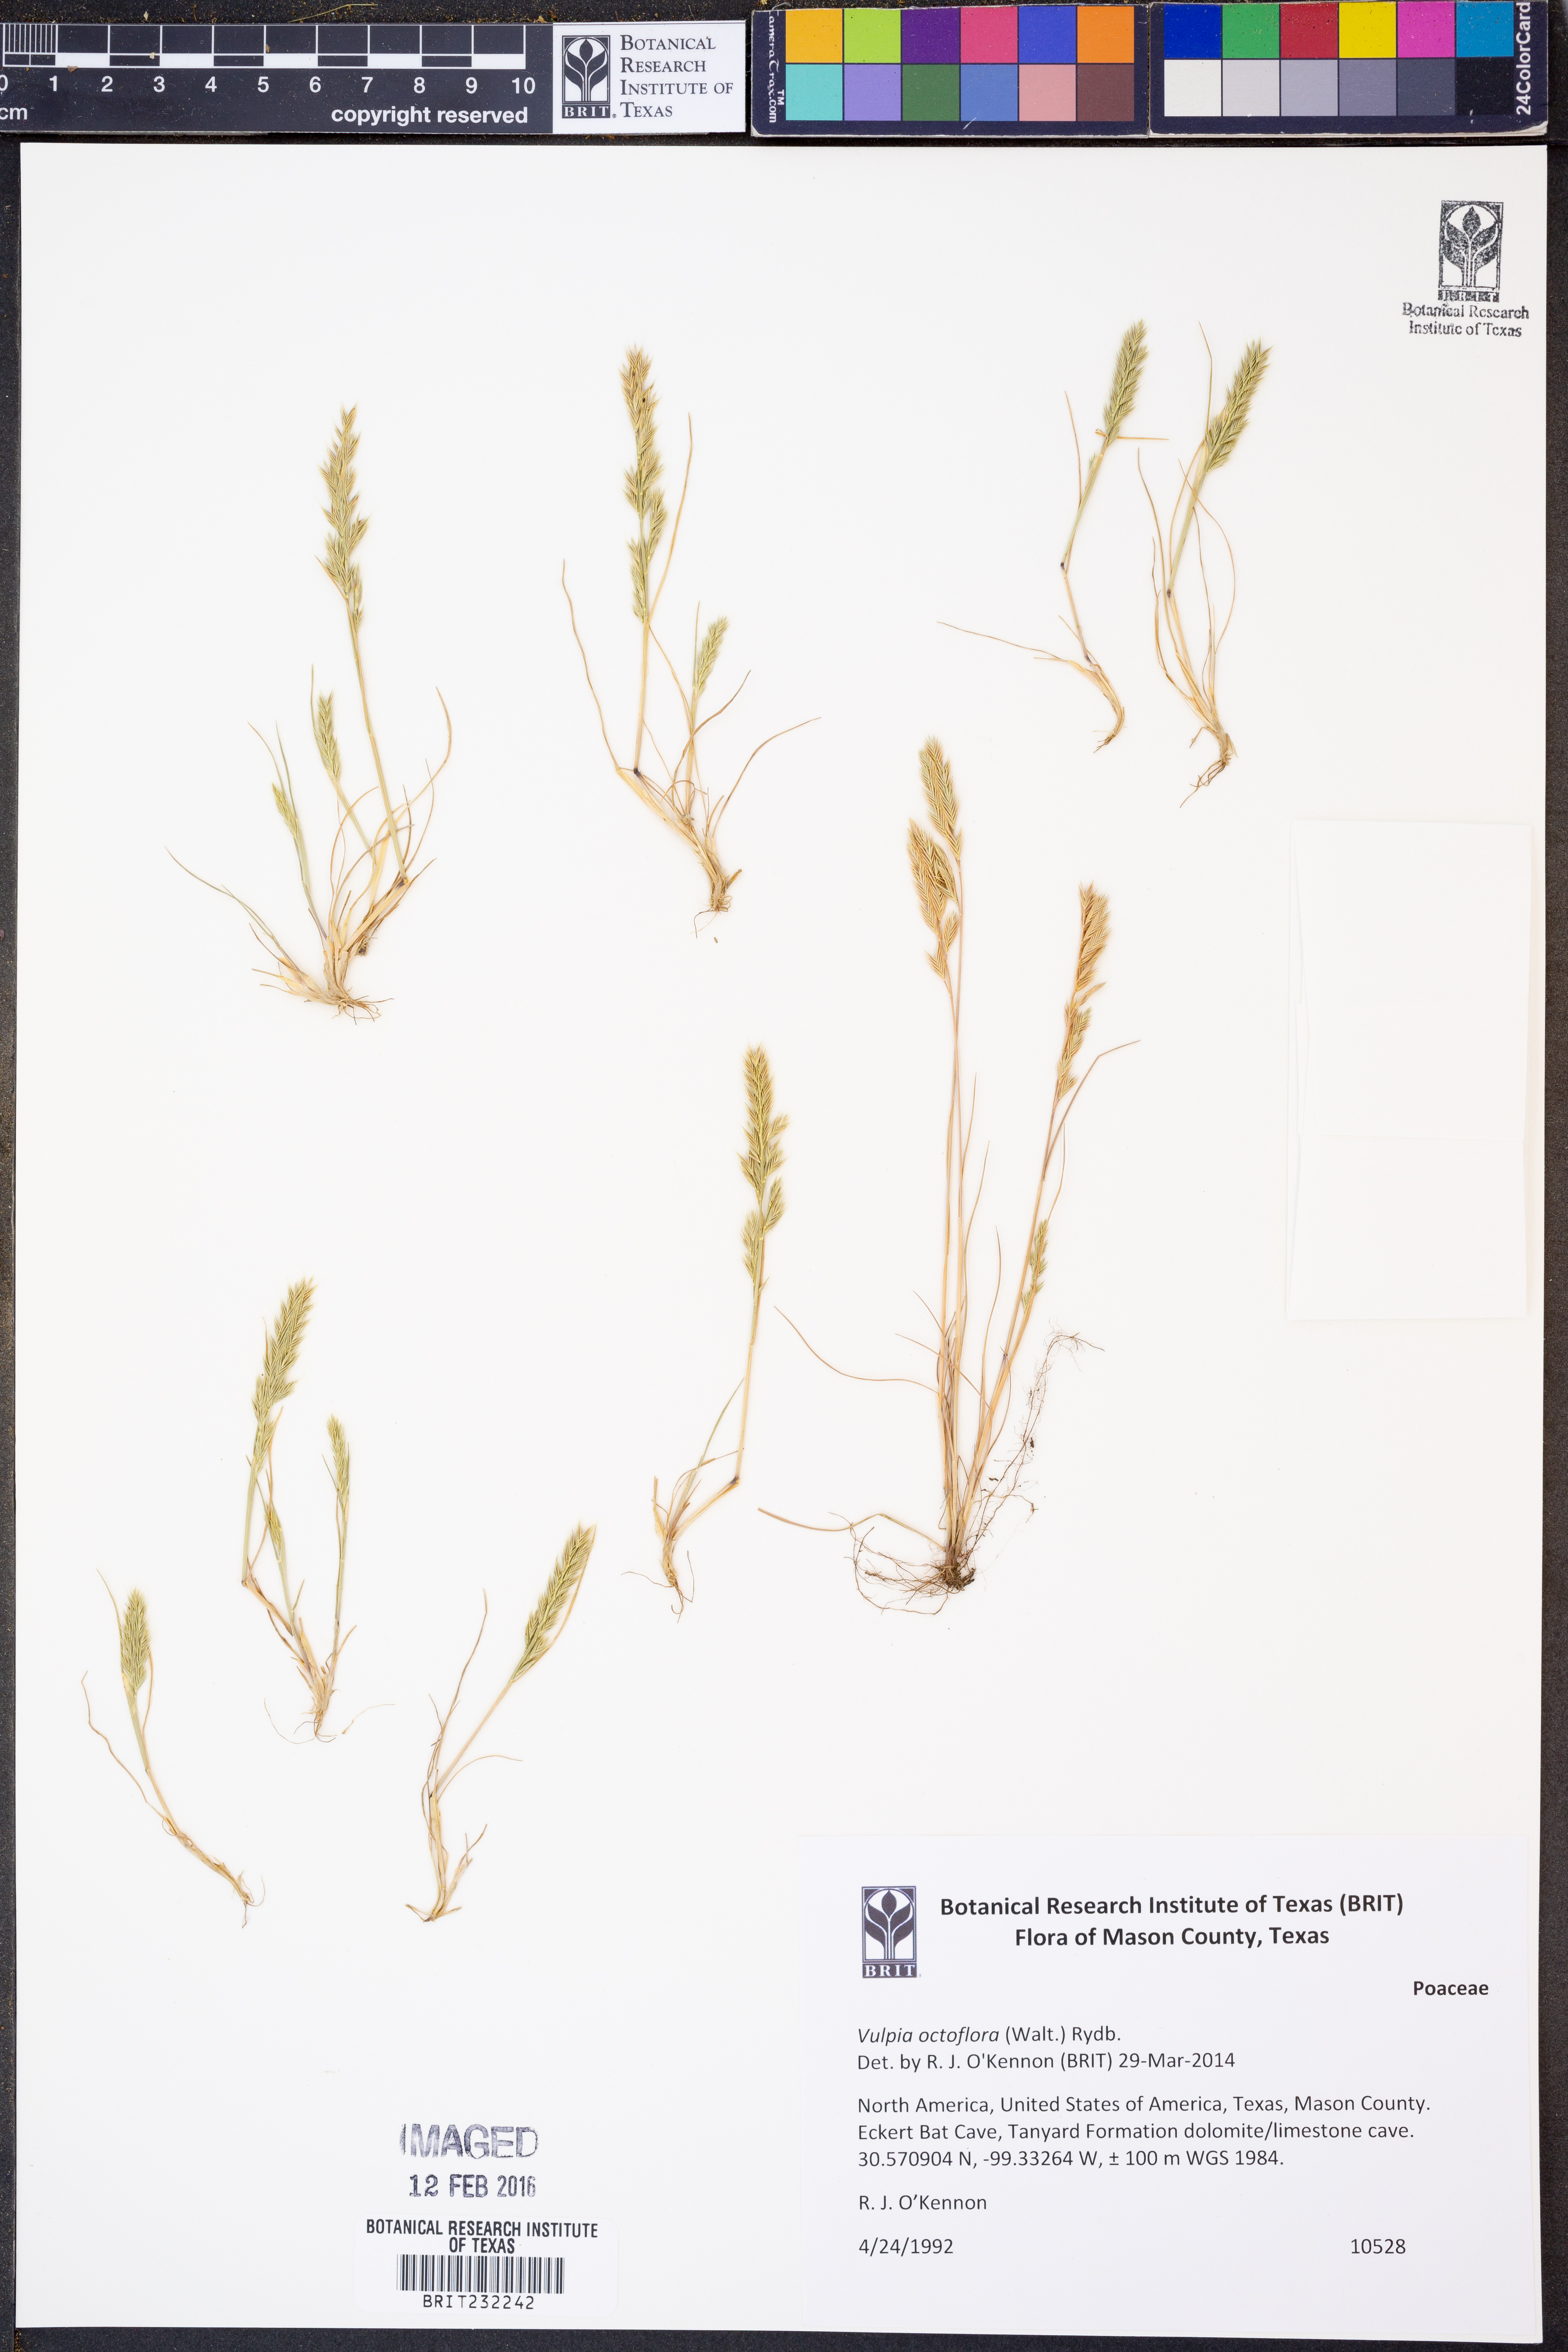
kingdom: Plantae
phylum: Tracheophyta
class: Liliopsida
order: Poales
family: Poaceae
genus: Festuca
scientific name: Festuca octoflora
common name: Sixweeks grass
